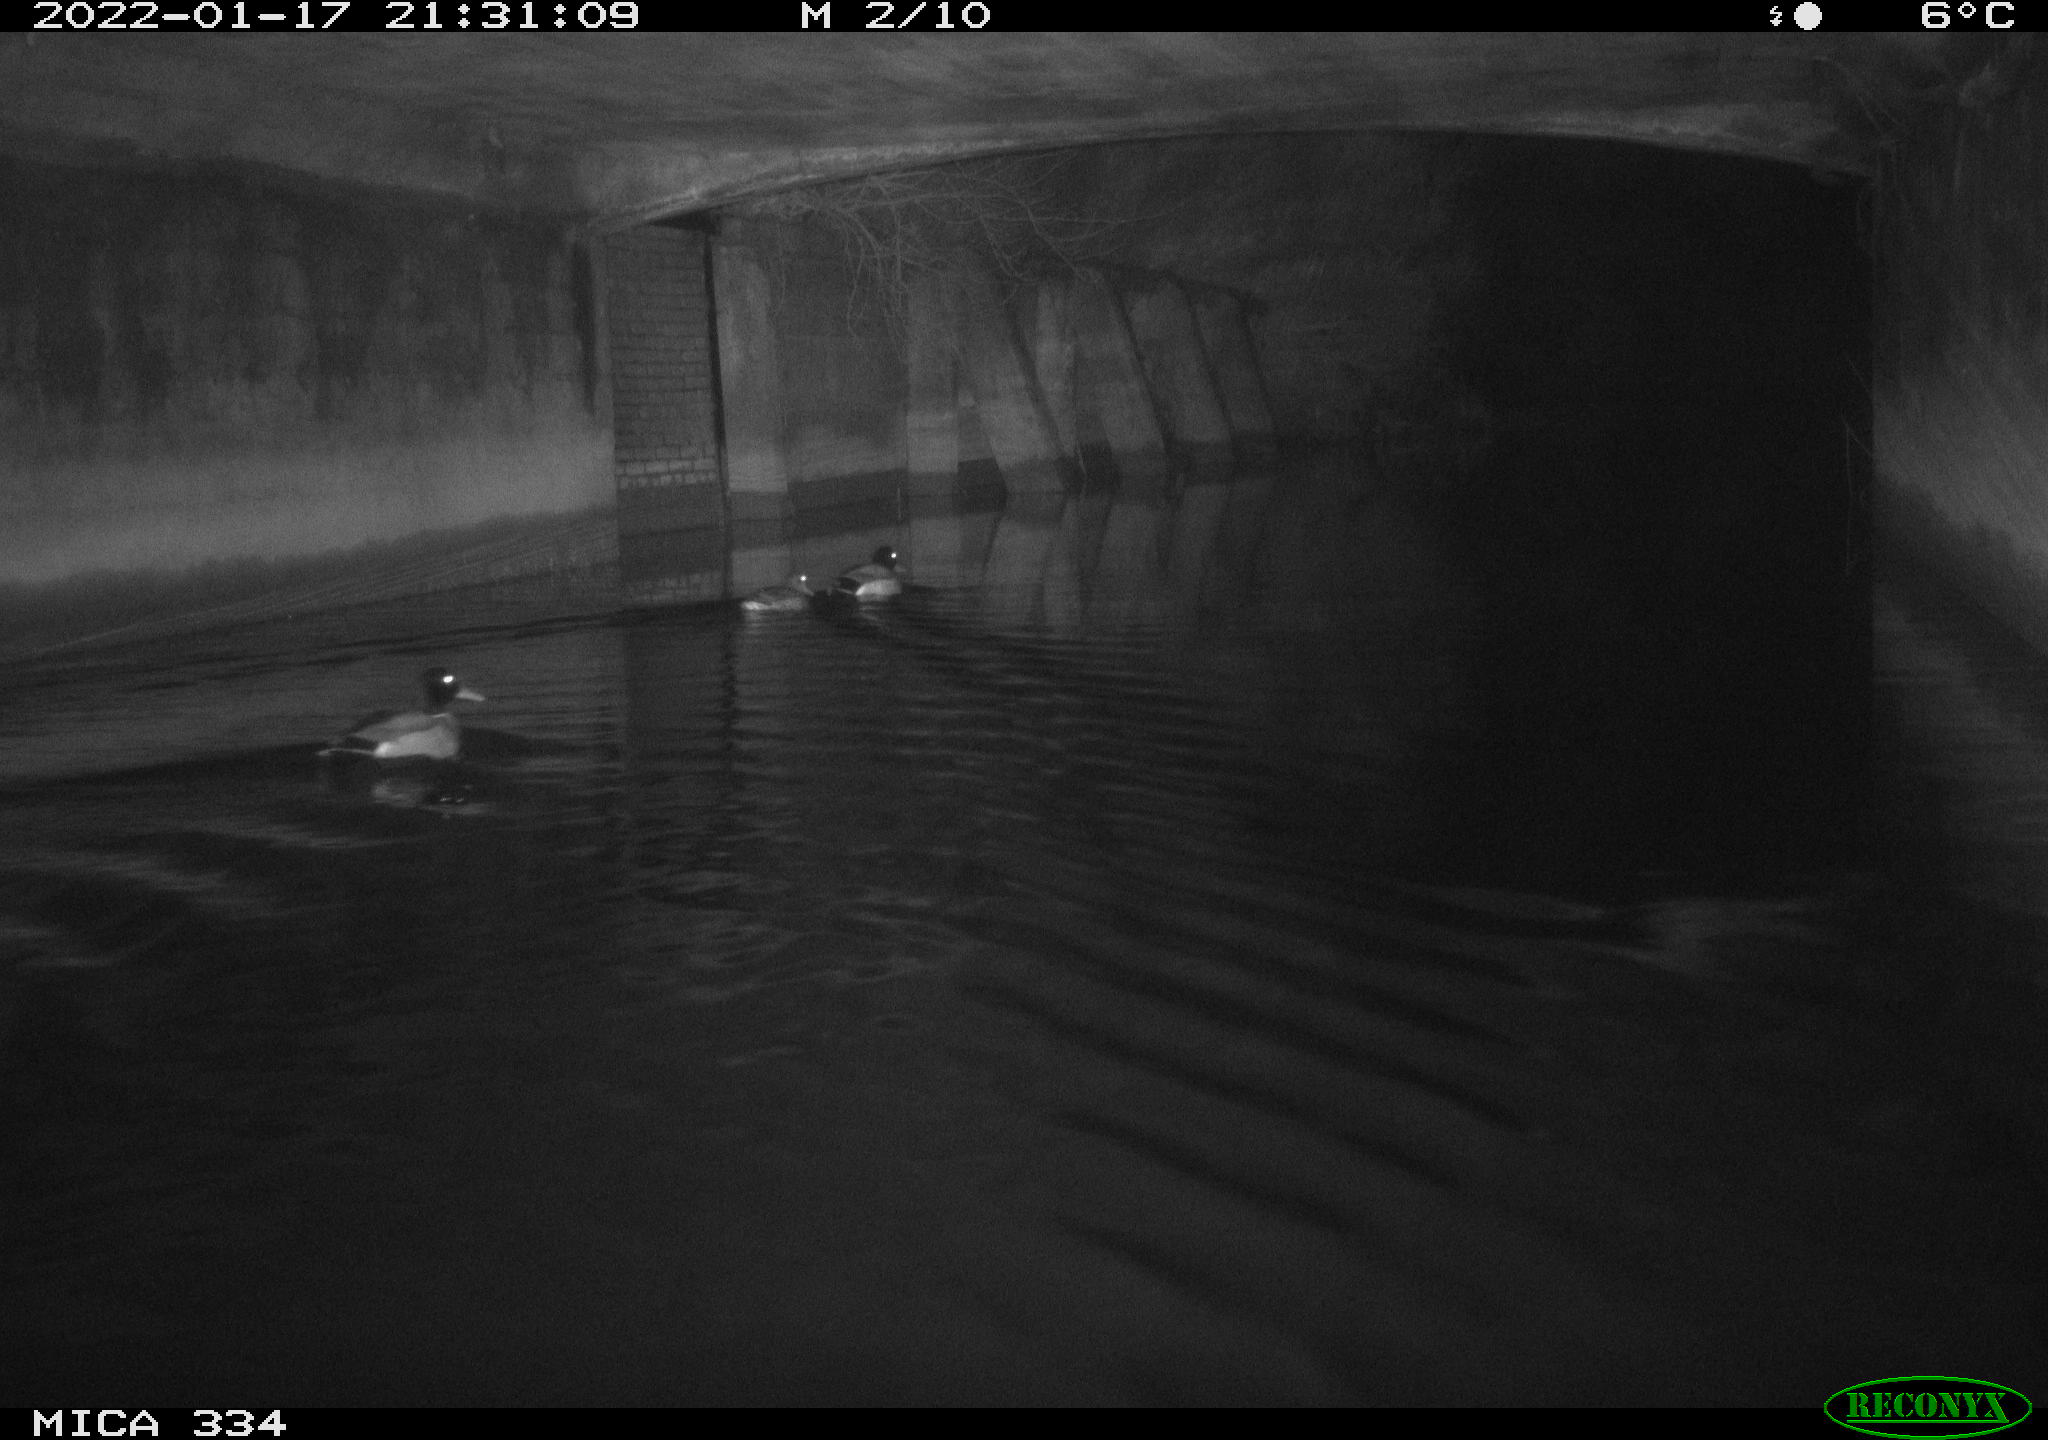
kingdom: Animalia
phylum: Chordata
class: Aves
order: Anseriformes
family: Anatidae
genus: Anas
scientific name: Anas platyrhynchos
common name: Mallard
